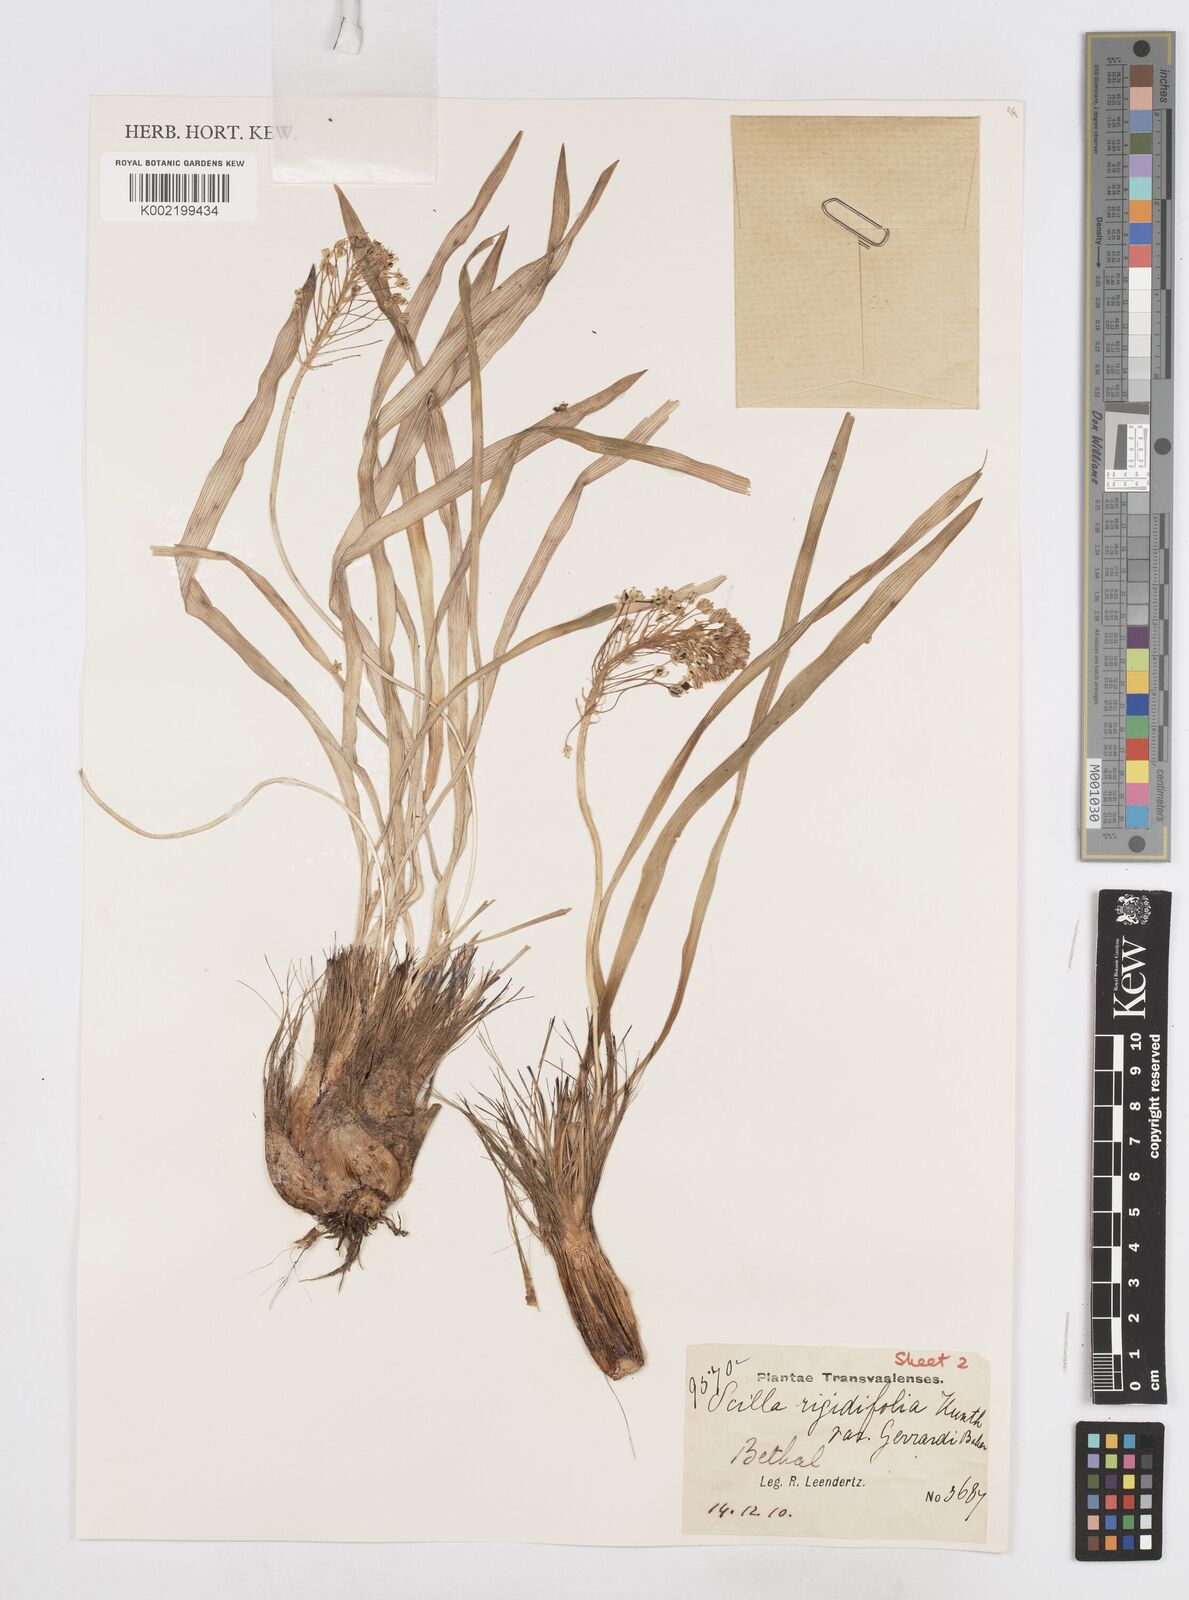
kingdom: Plantae
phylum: Tracheophyta
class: Liliopsida
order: Asparagales
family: Asparagaceae
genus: Schizocarphus
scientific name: Schizocarphus nervosus
